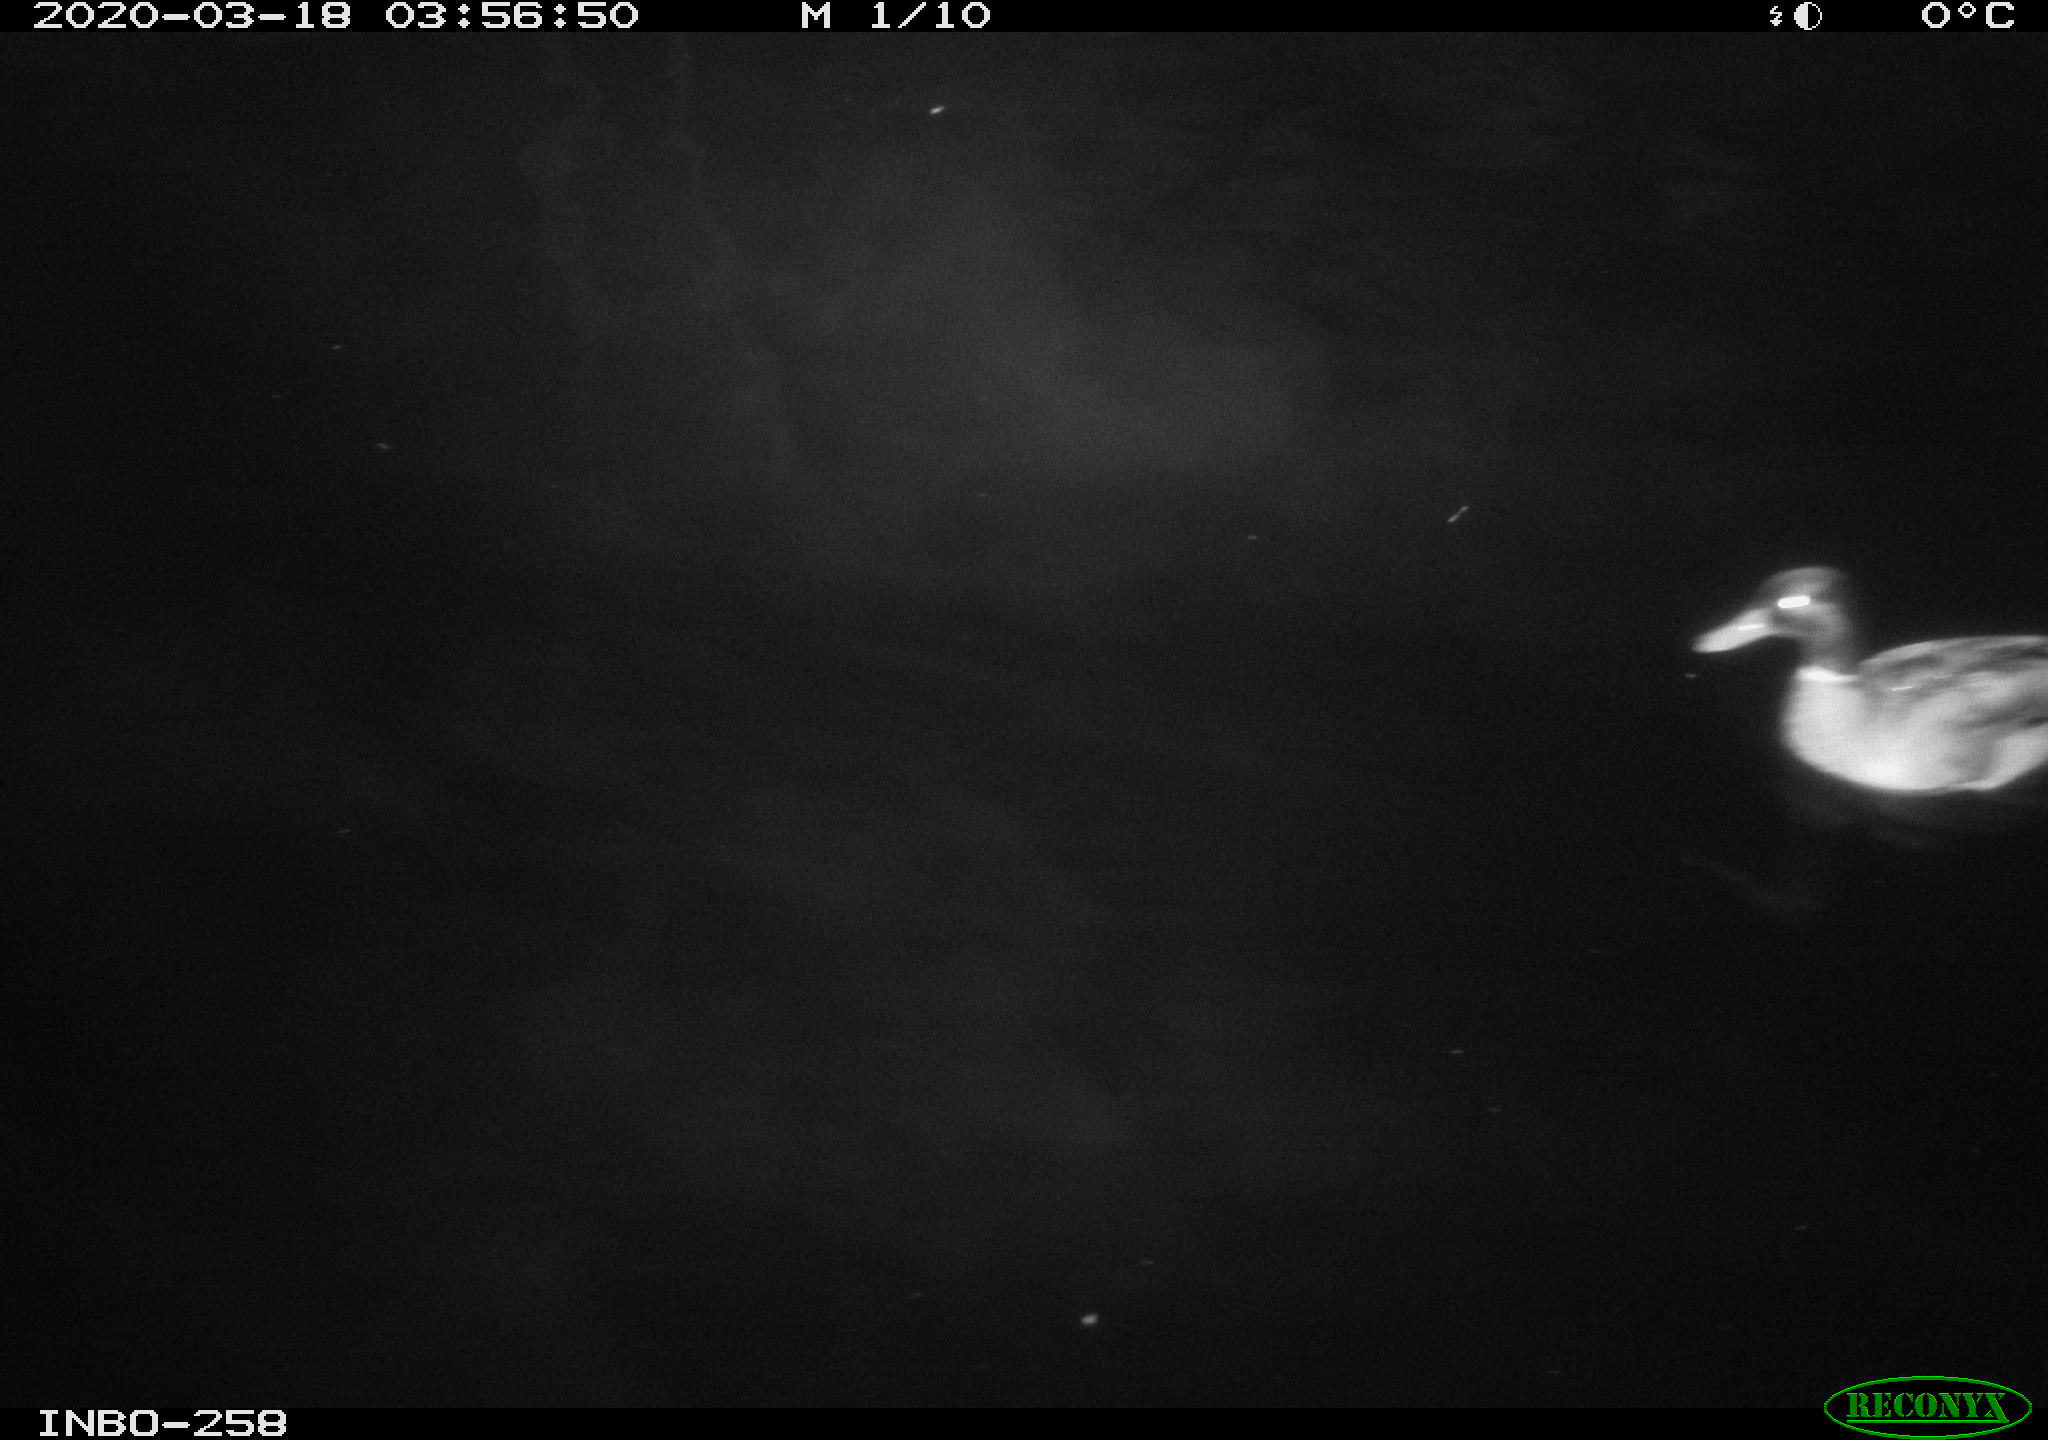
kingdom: Animalia
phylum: Chordata
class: Aves
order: Anseriformes
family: Anatidae
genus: Anas
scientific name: Anas platyrhynchos
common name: Mallard
